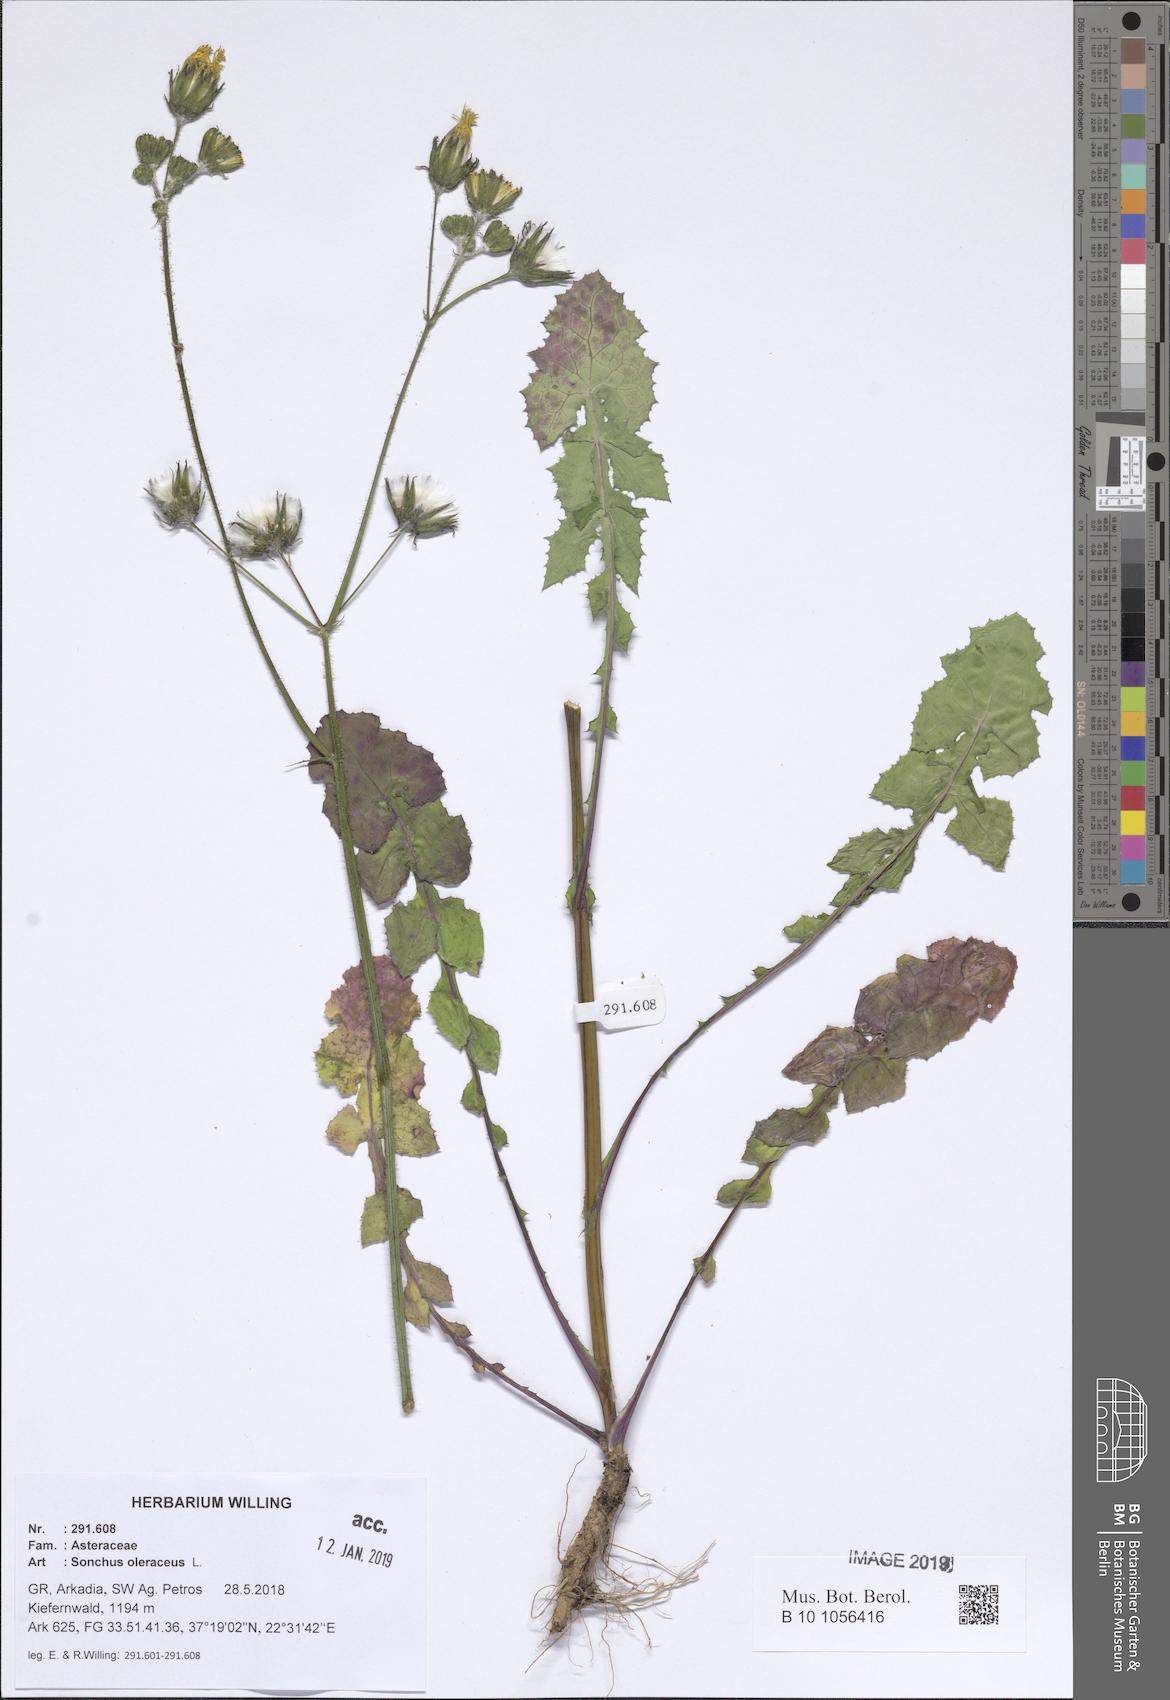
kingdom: Plantae
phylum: Tracheophyta
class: Magnoliopsida
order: Asterales
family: Asteraceae
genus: Sonchus
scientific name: Sonchus oleraceus
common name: Common sowthistle
